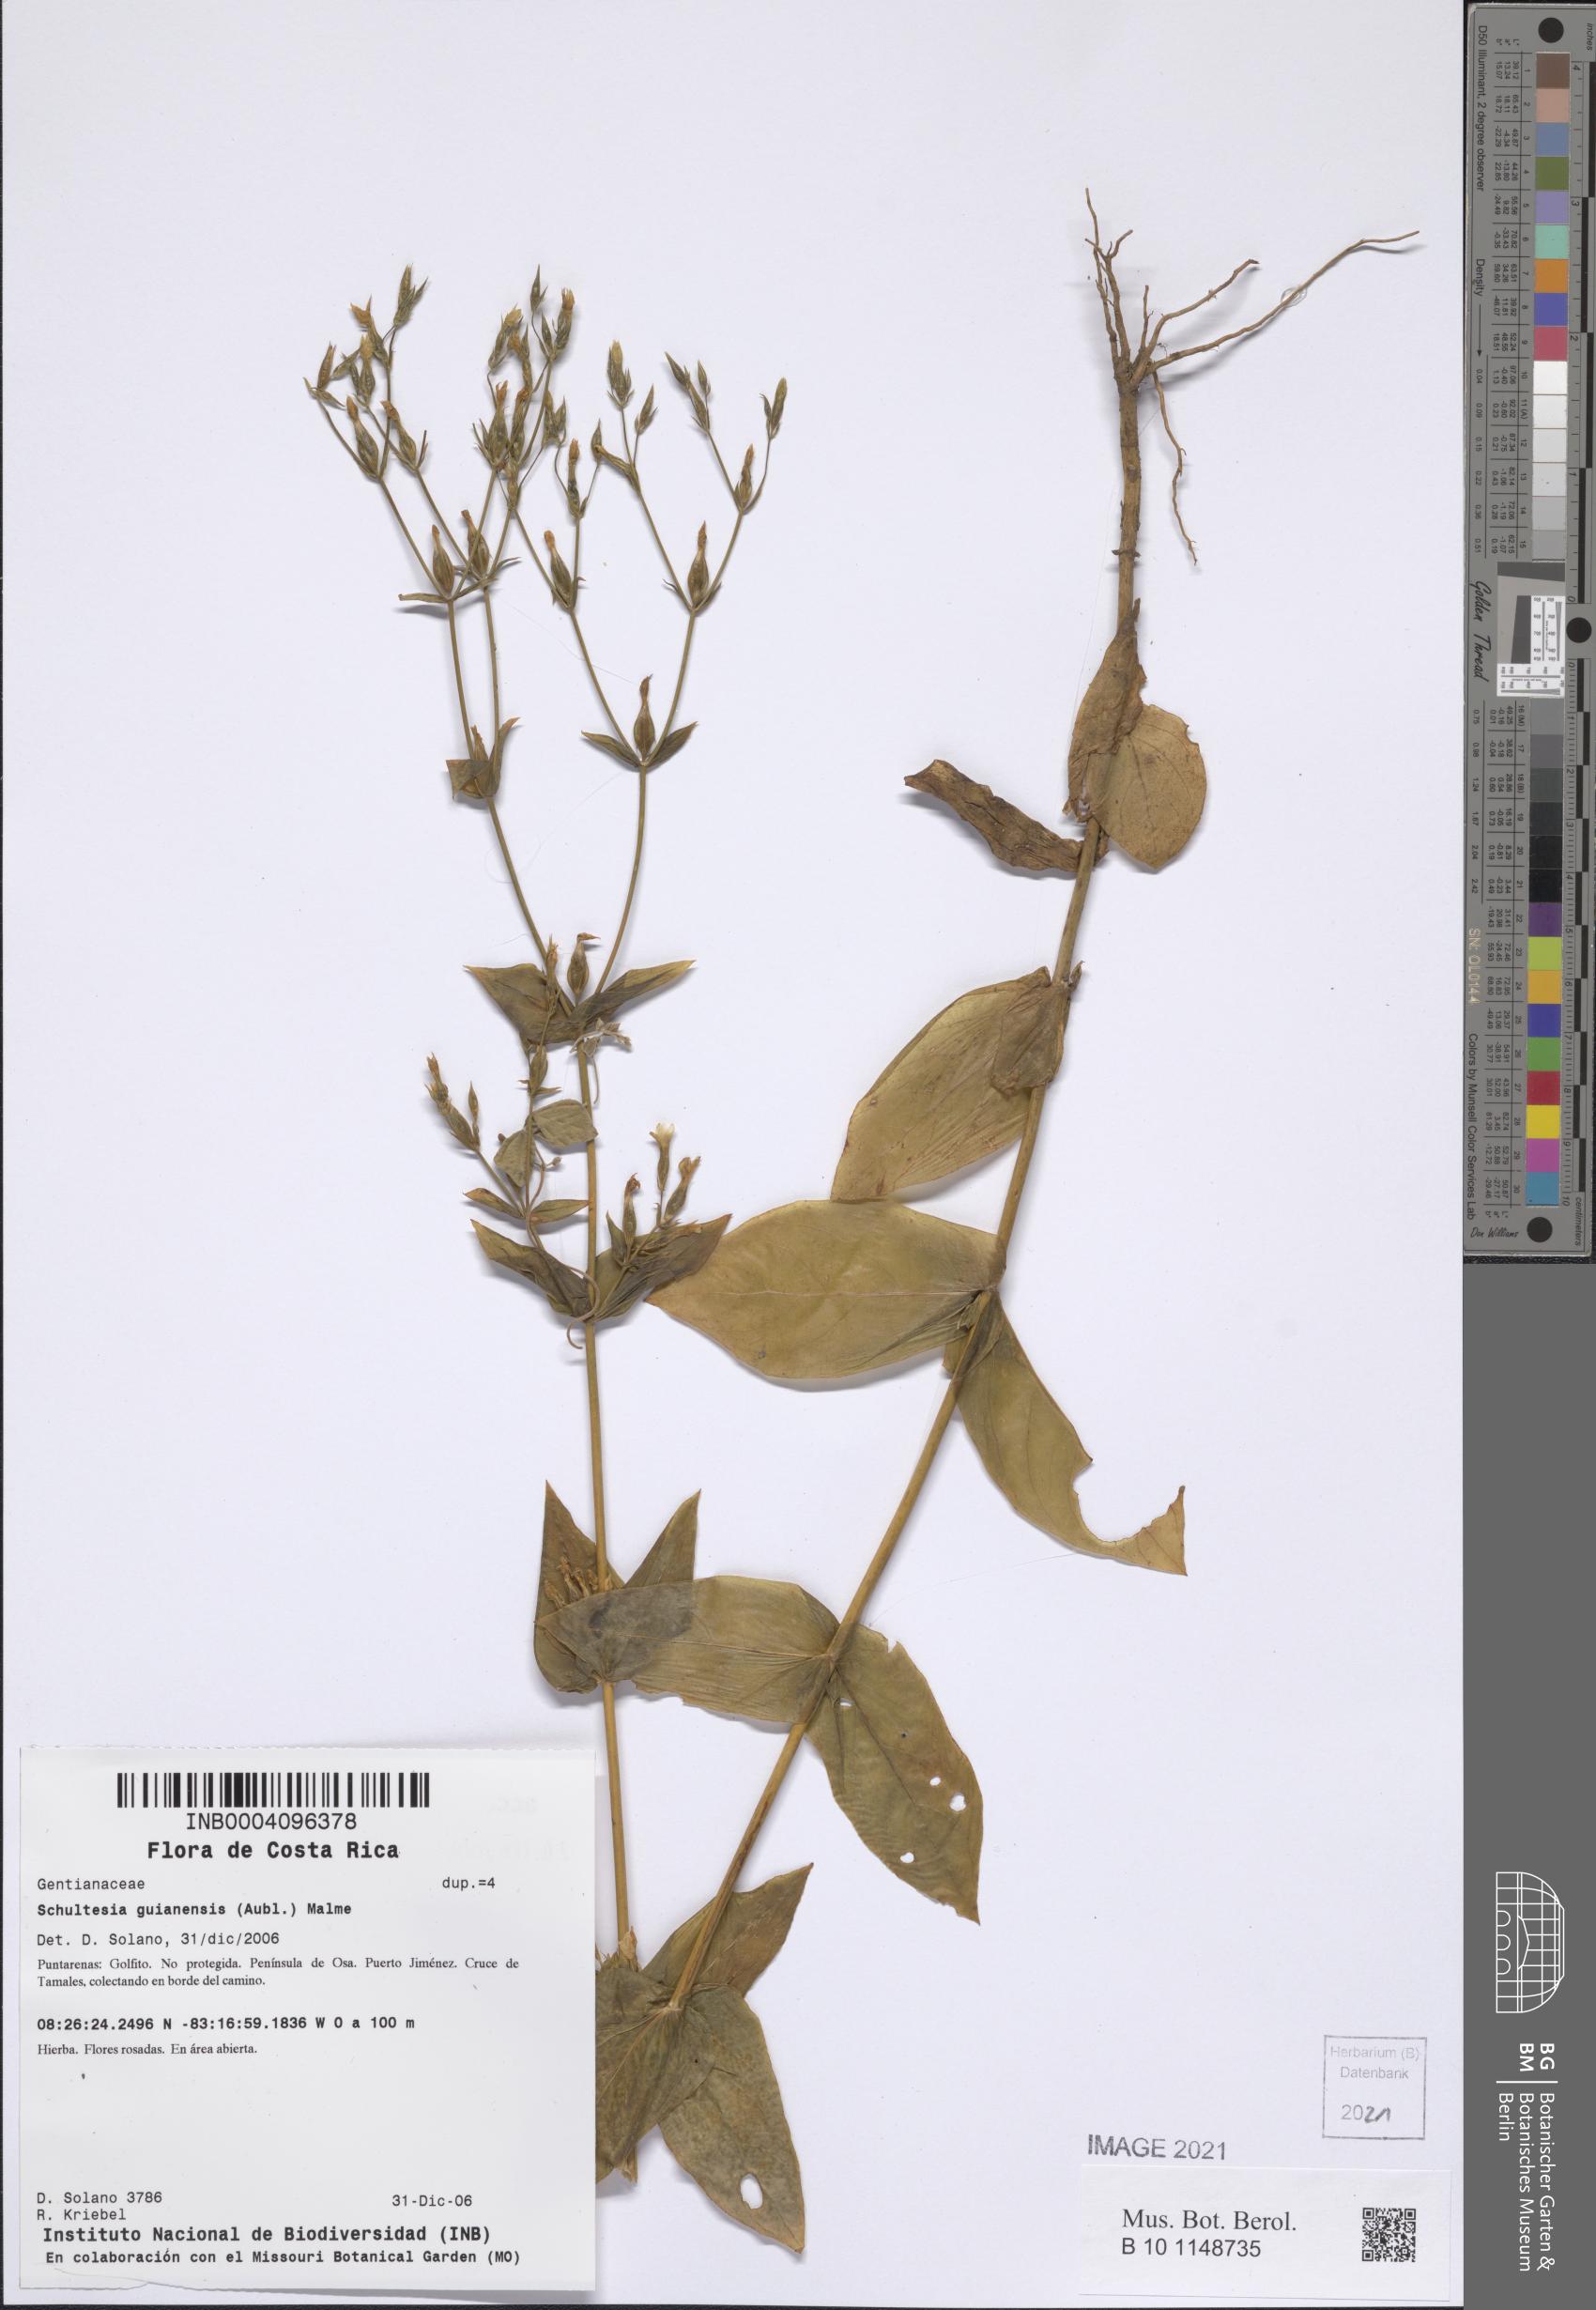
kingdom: Plantae
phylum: Tracheophyta
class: Magnoliopsida
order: Gentianales
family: Gentianaceae
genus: Schultesia
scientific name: Schultesia lisianthoides
